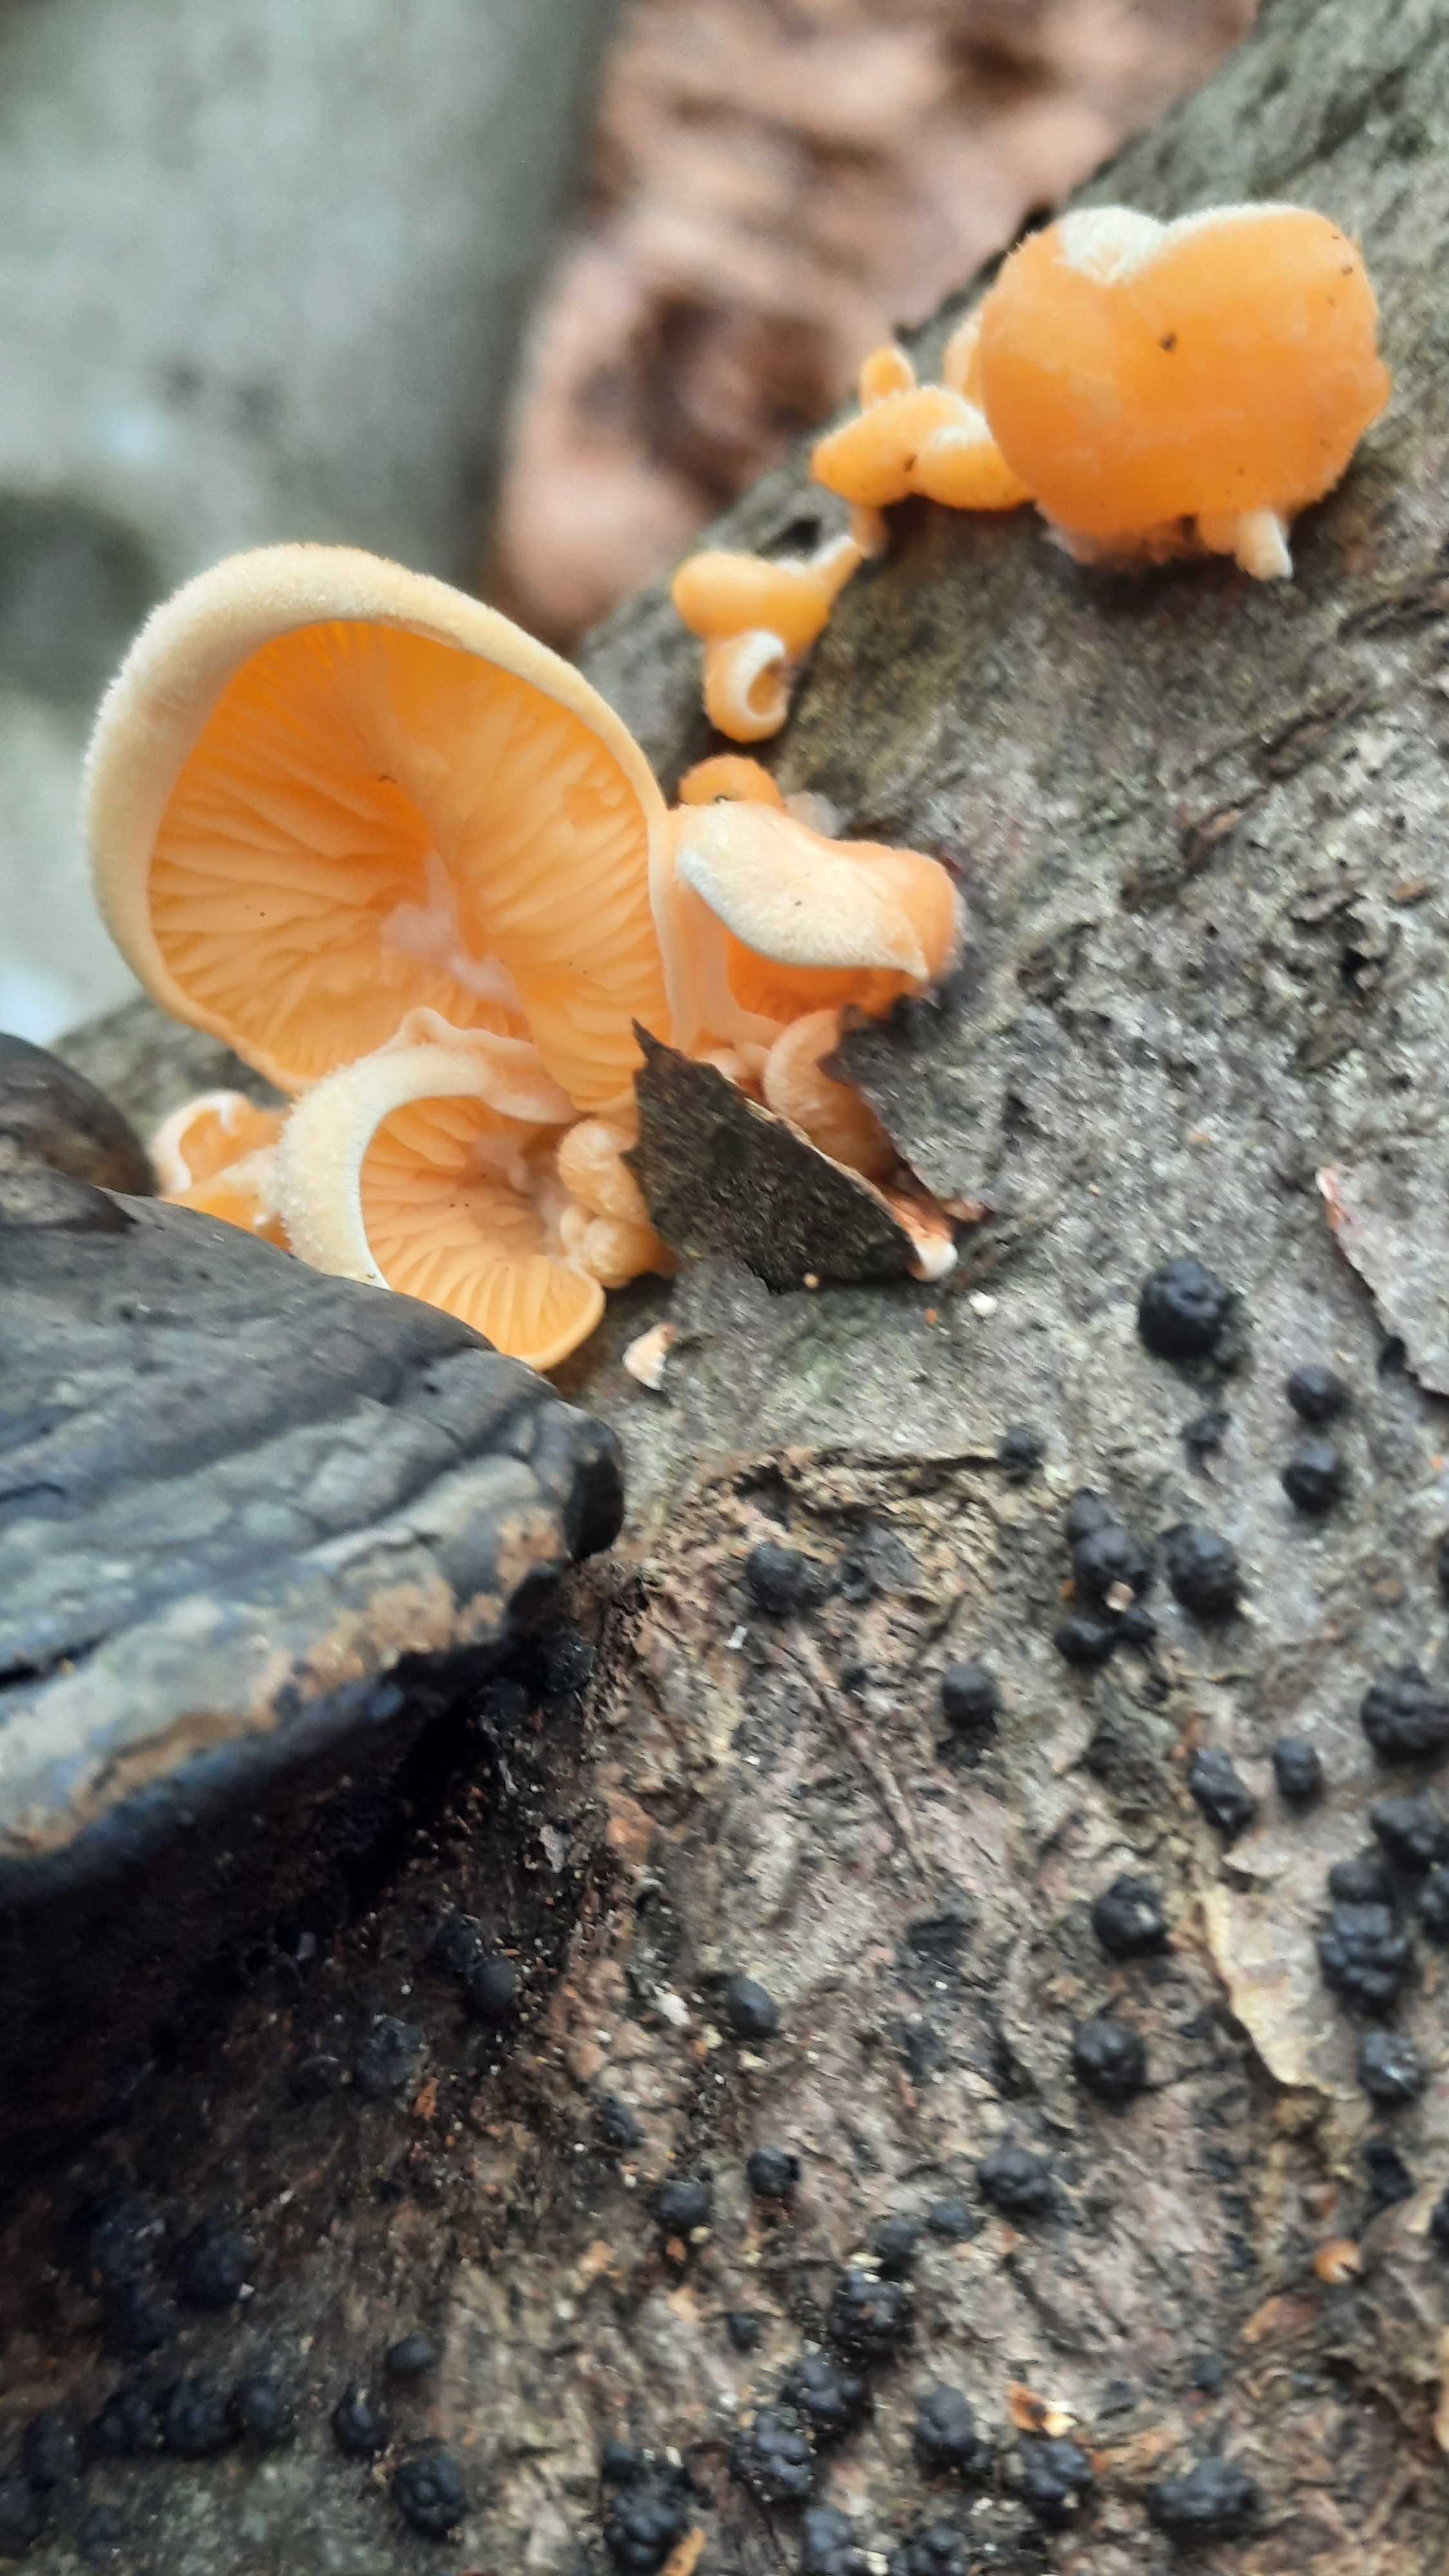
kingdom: Fungi
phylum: Basidiomycota
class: Agaricomycetes
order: Agaricales
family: Phyllotopsidaceae
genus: Phyllotopsis
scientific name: Phyllotopsis nidulans
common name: okkerblad
